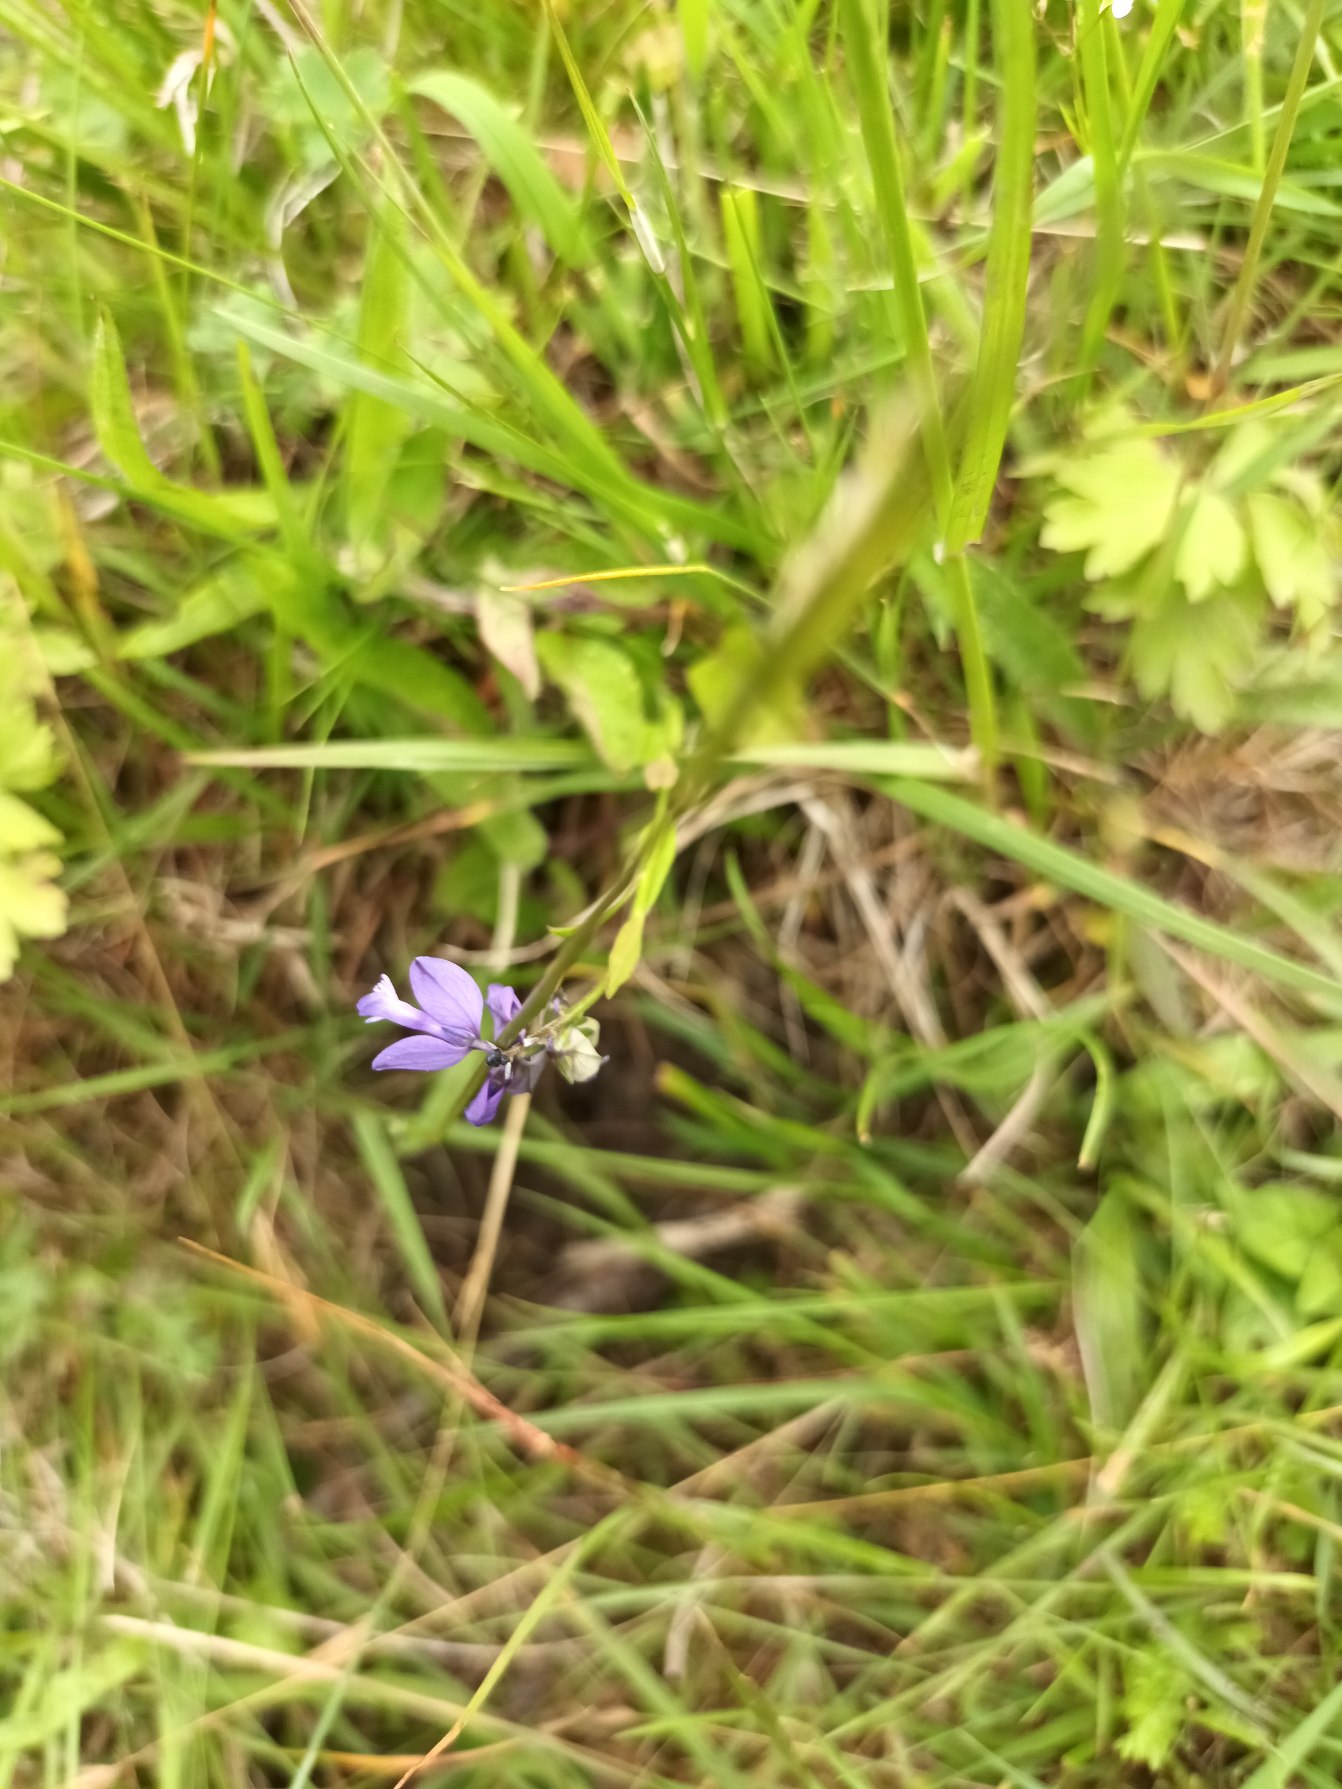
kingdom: Plantae
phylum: Tracheophyta
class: Magnoliopsida
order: Fabales
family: Polygalaceae
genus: Polygala
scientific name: Polygala vulgaris
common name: Almindelig mælkeurt
